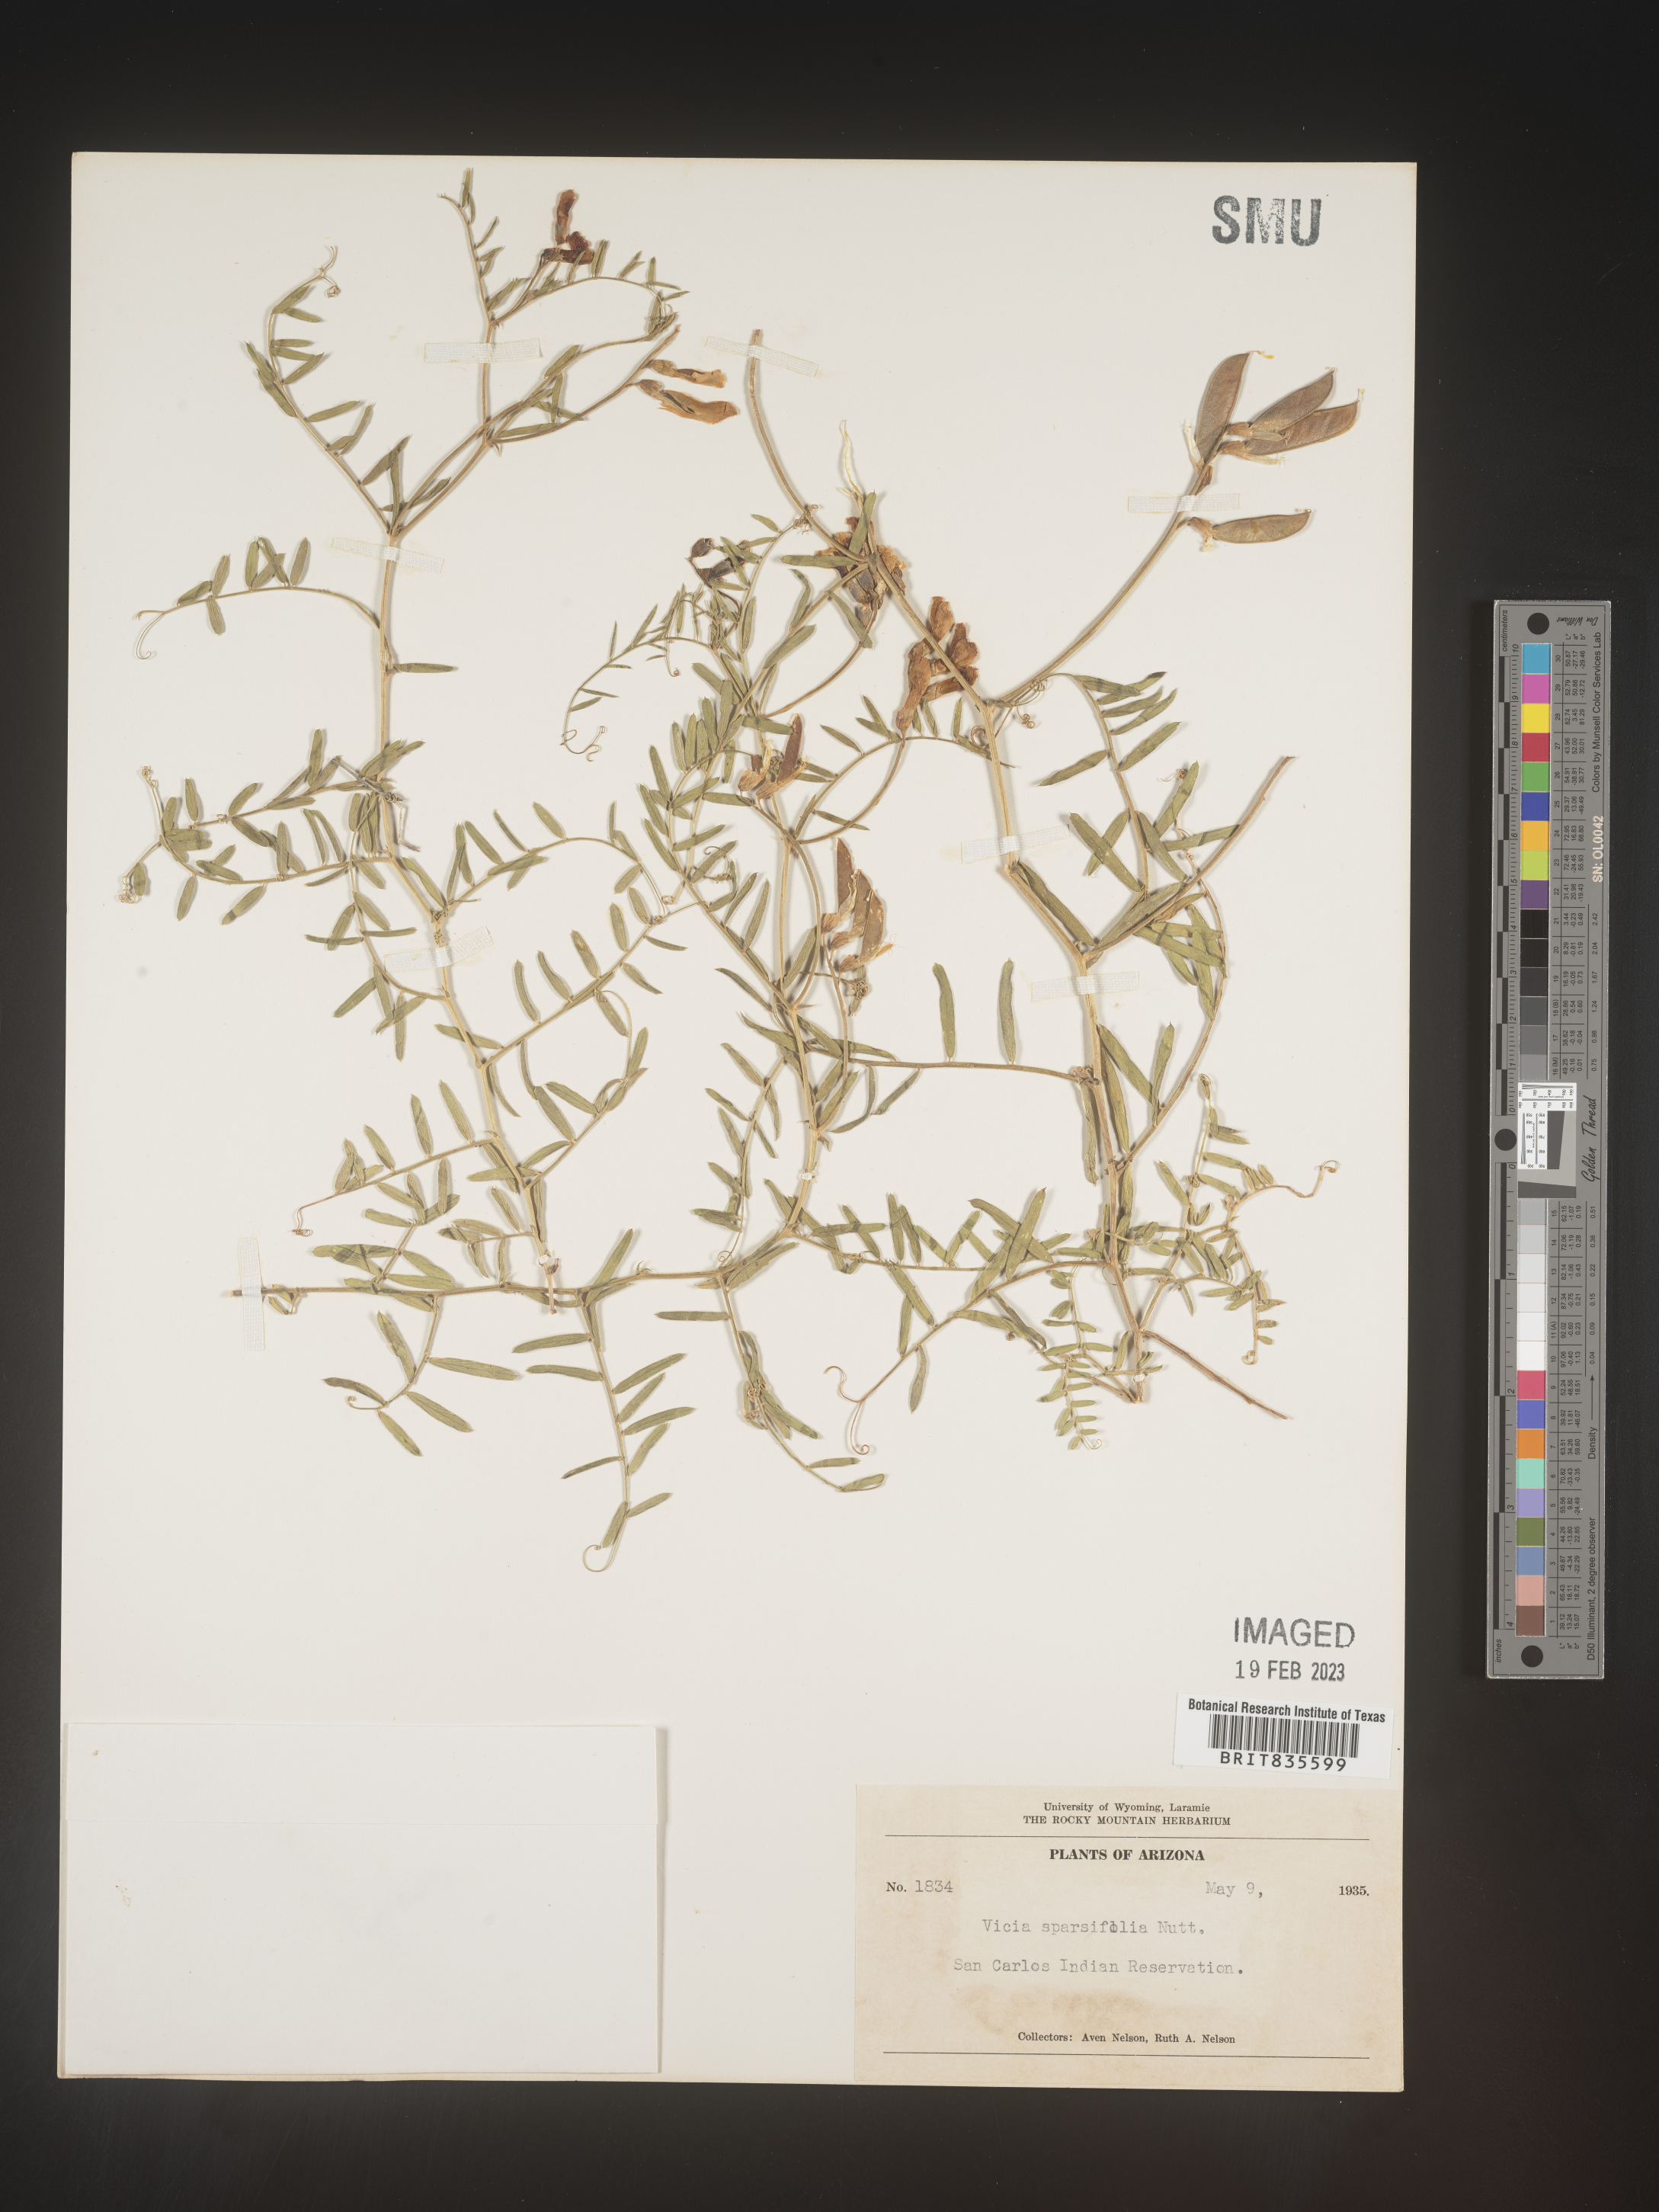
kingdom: Plantae
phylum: Tracheophyta
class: Magnoliopsida
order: Fabales
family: Fabaceae
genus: Vicia
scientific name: Vicia americana
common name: American vetch
